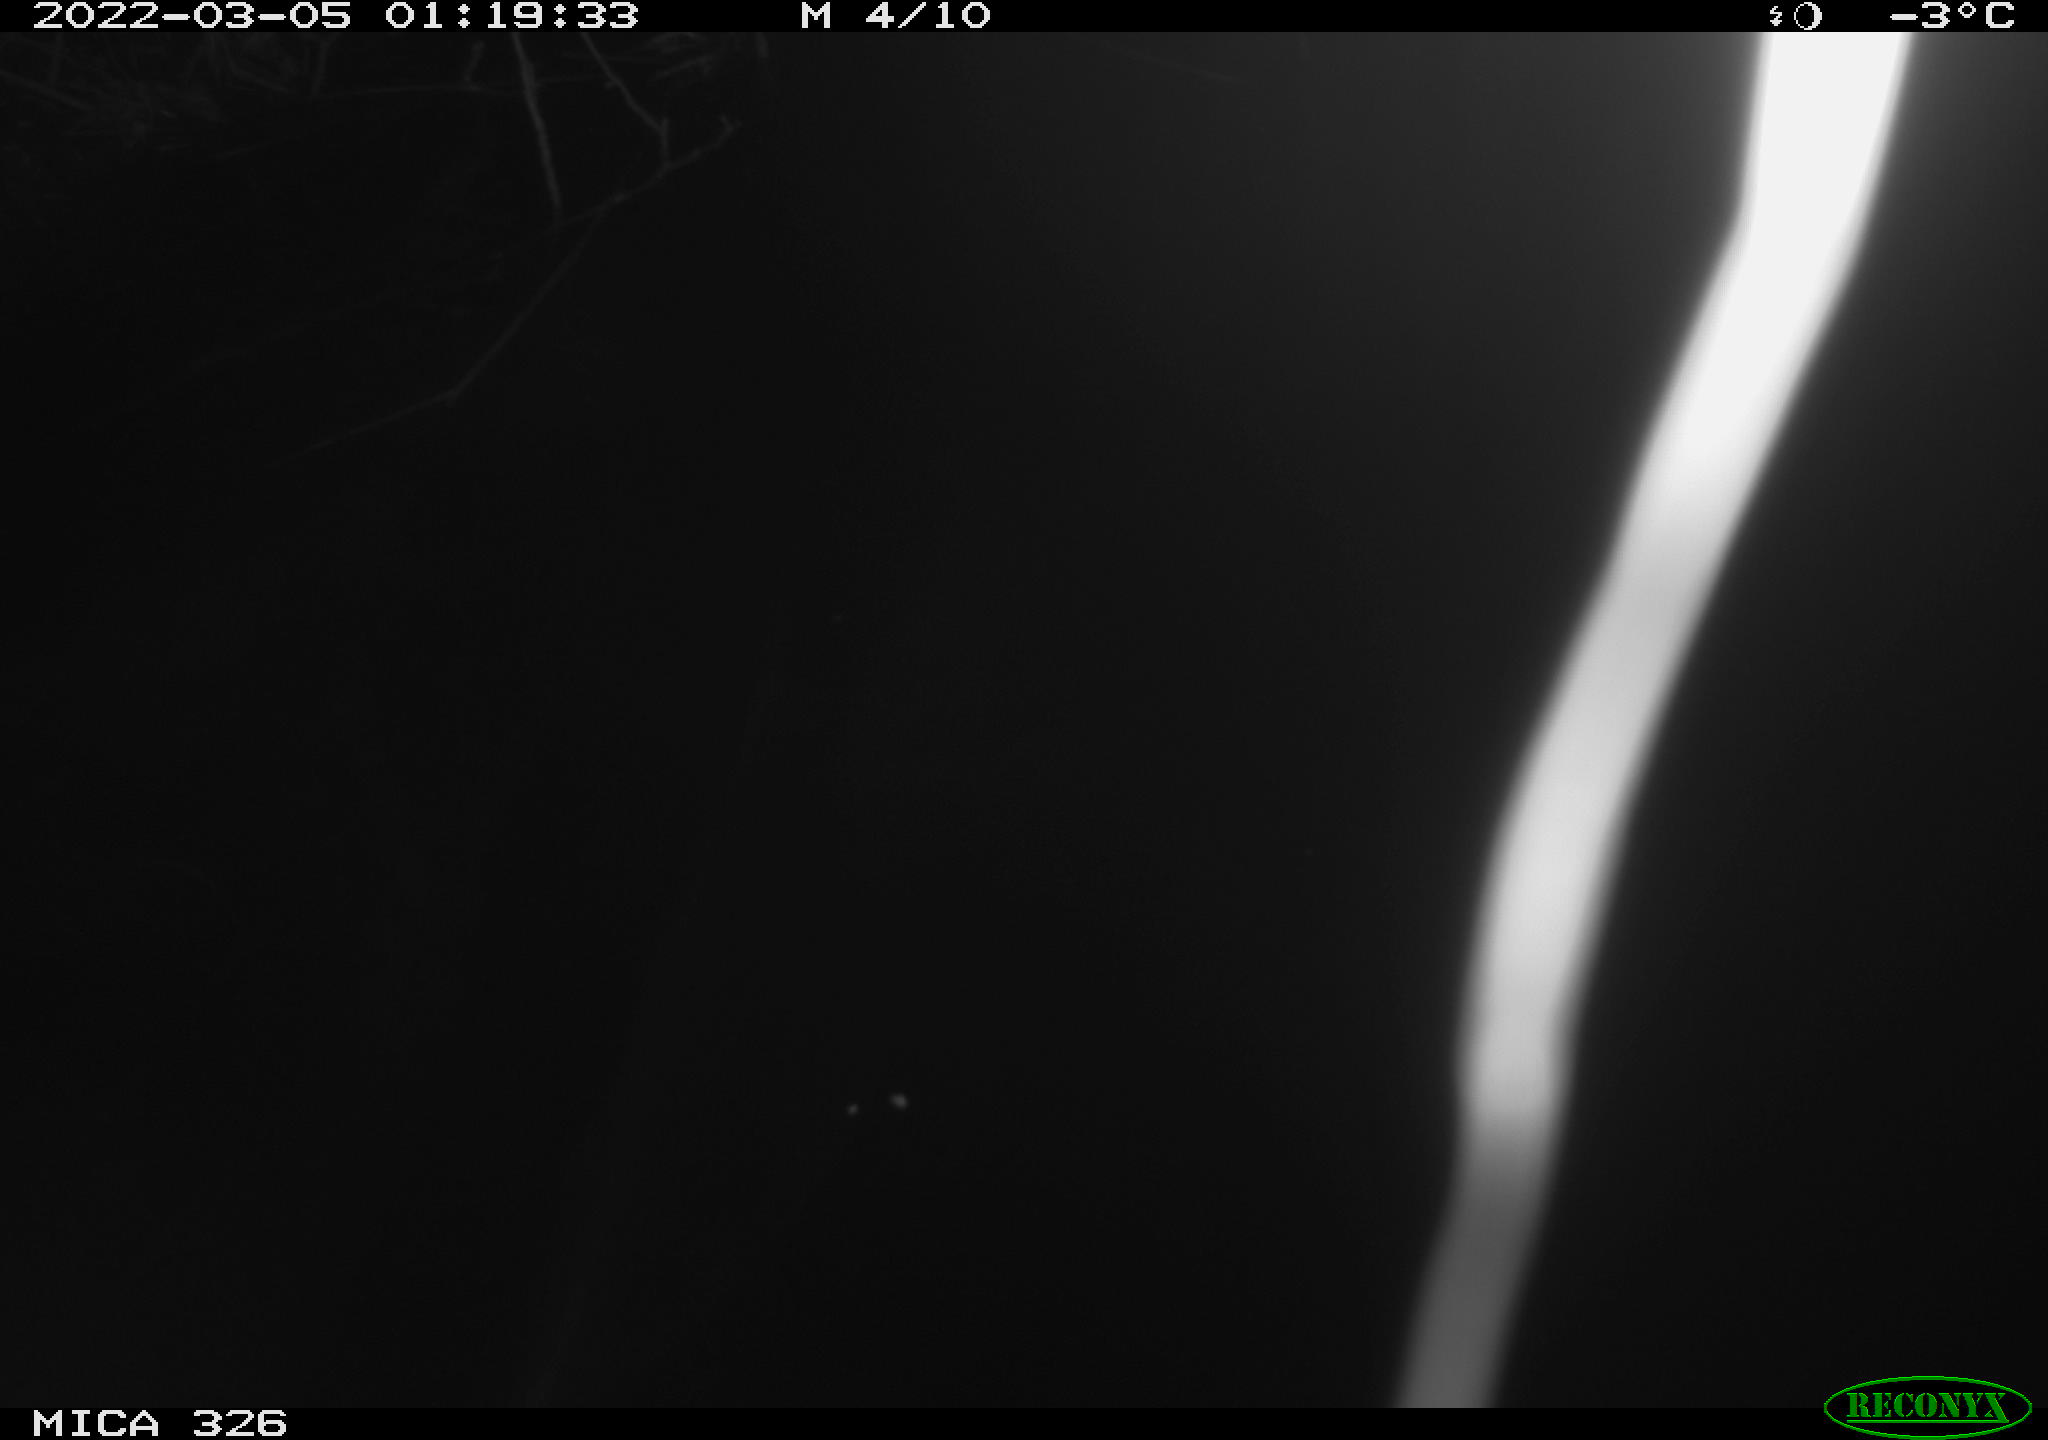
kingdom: Animalia
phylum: Chordata
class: Mammalia
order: Rodentia
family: Cricetidae
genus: Ondatra
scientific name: Ondatra zibethicus
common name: Muskrat
